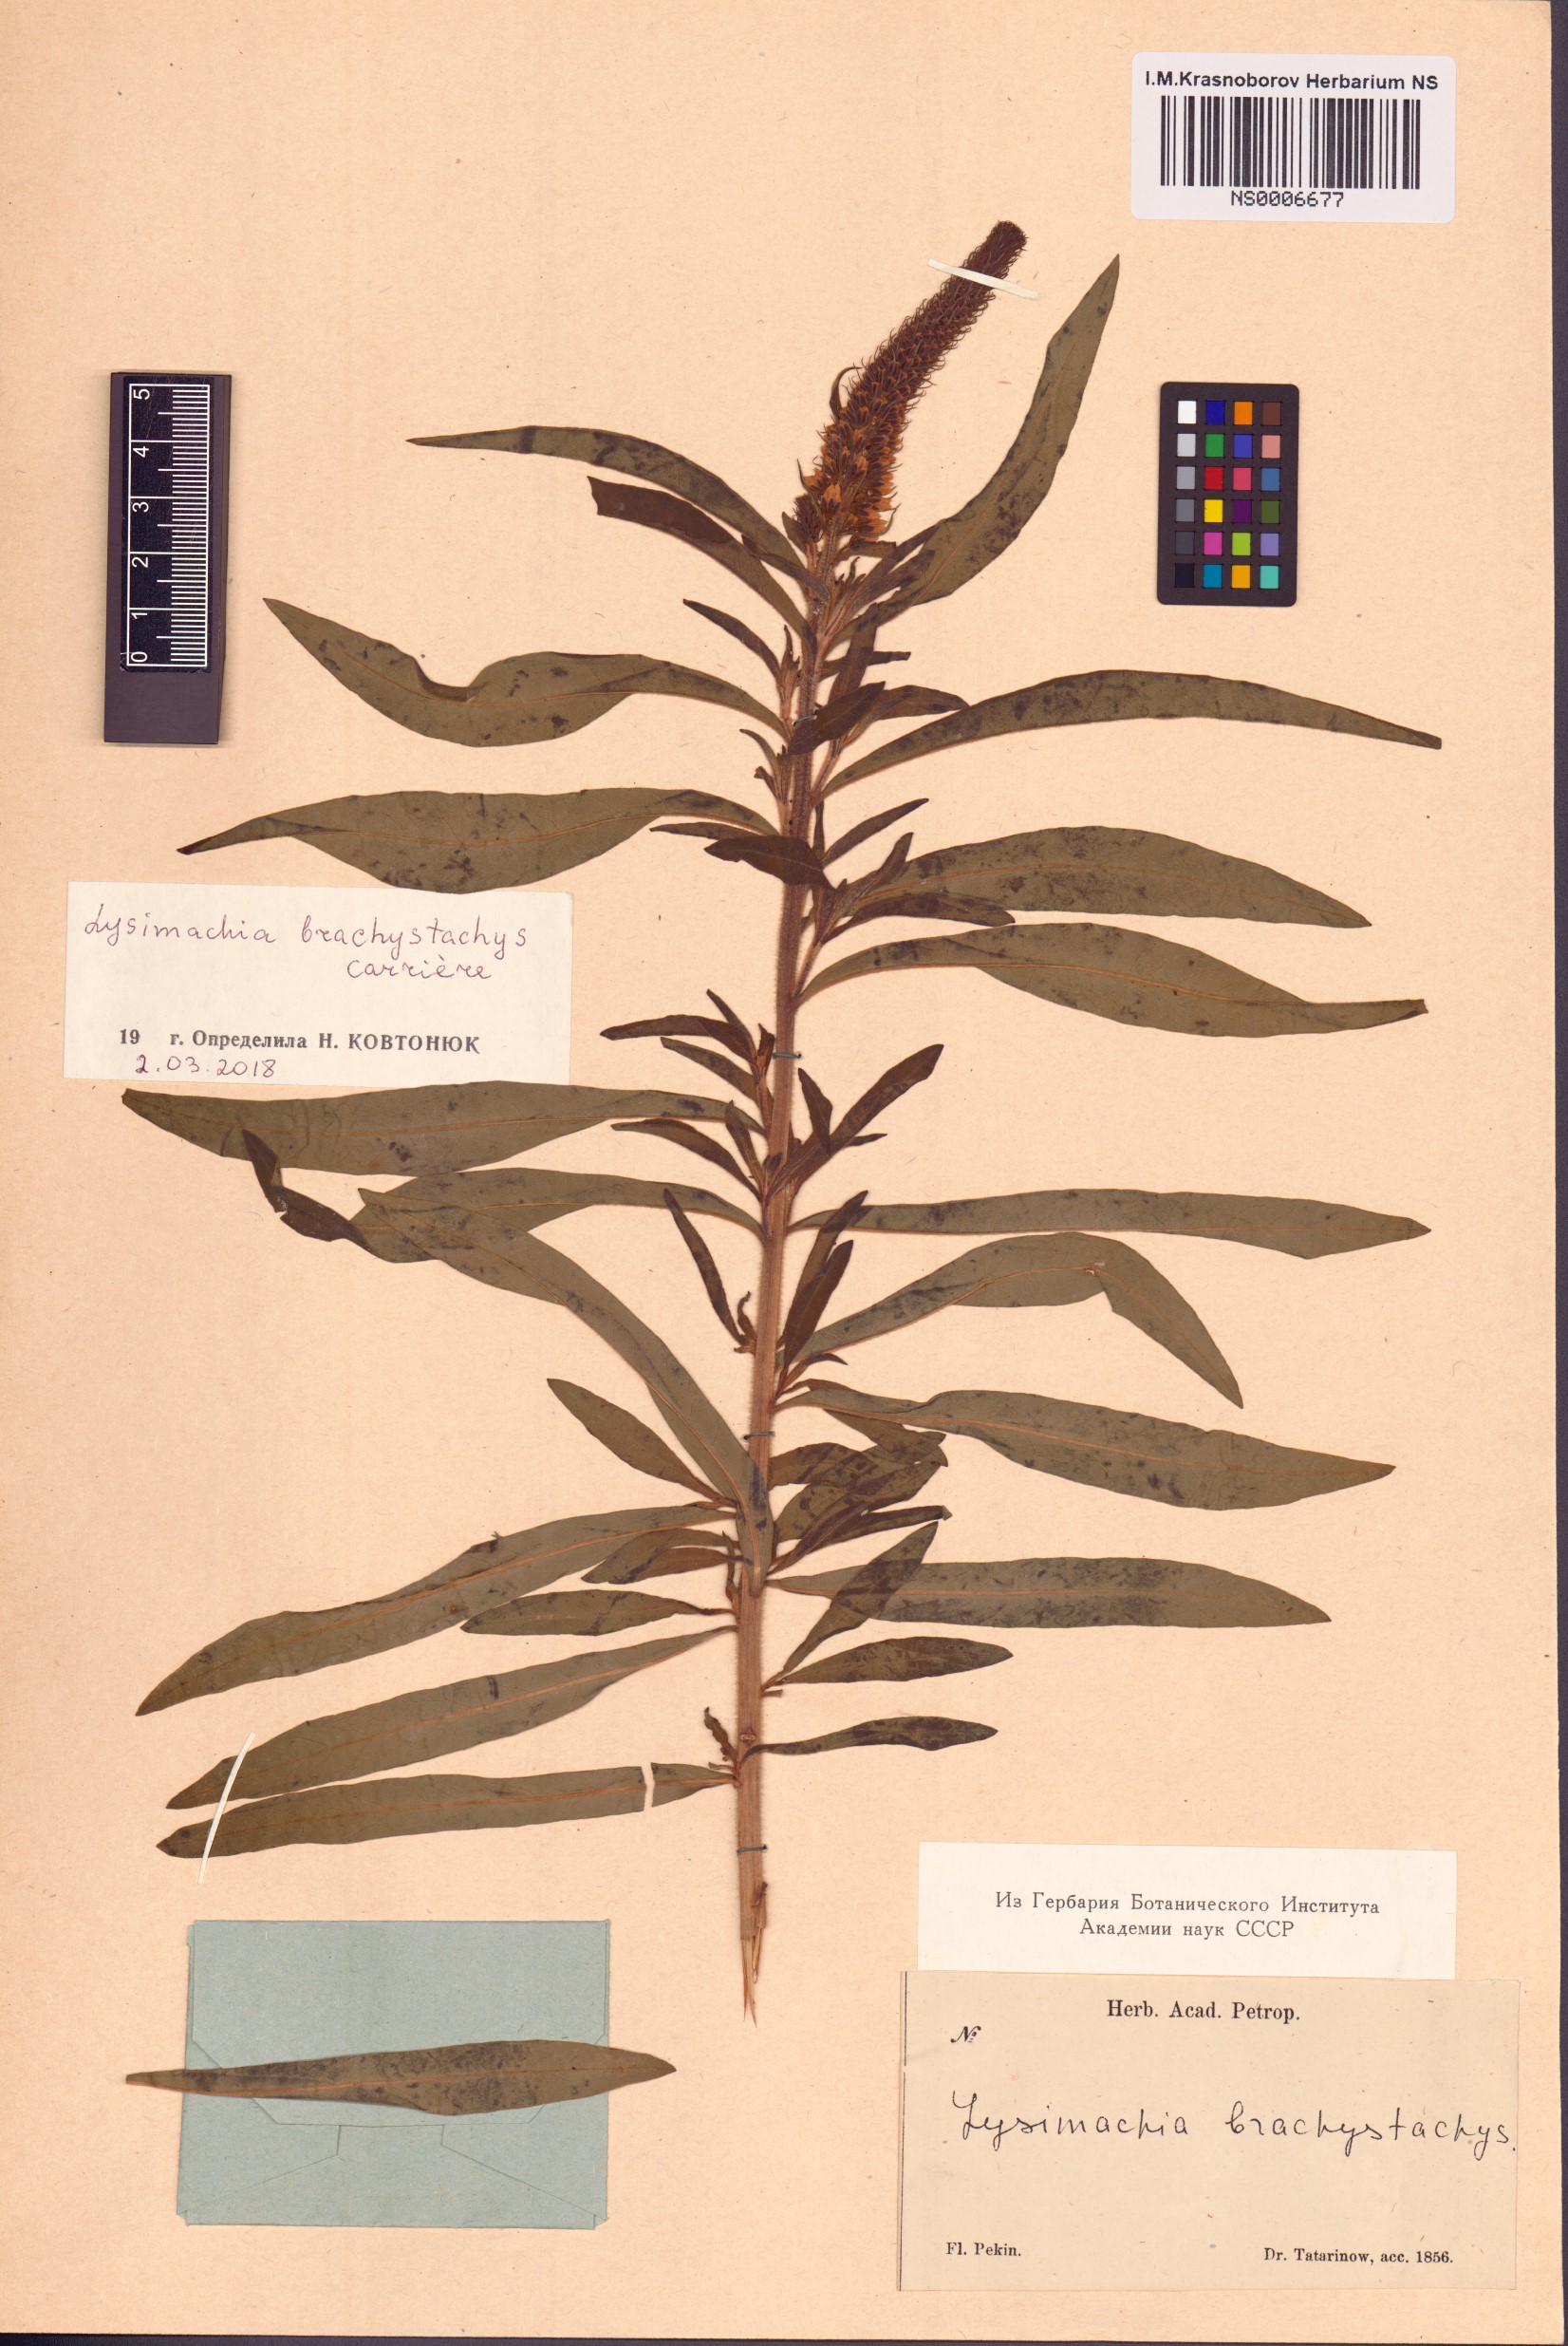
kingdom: Plantae
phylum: Tracheophyta
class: Magnoliopsida
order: Ericales
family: Primulaceae
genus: Lysimachia
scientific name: Lysimachia brachystachys
